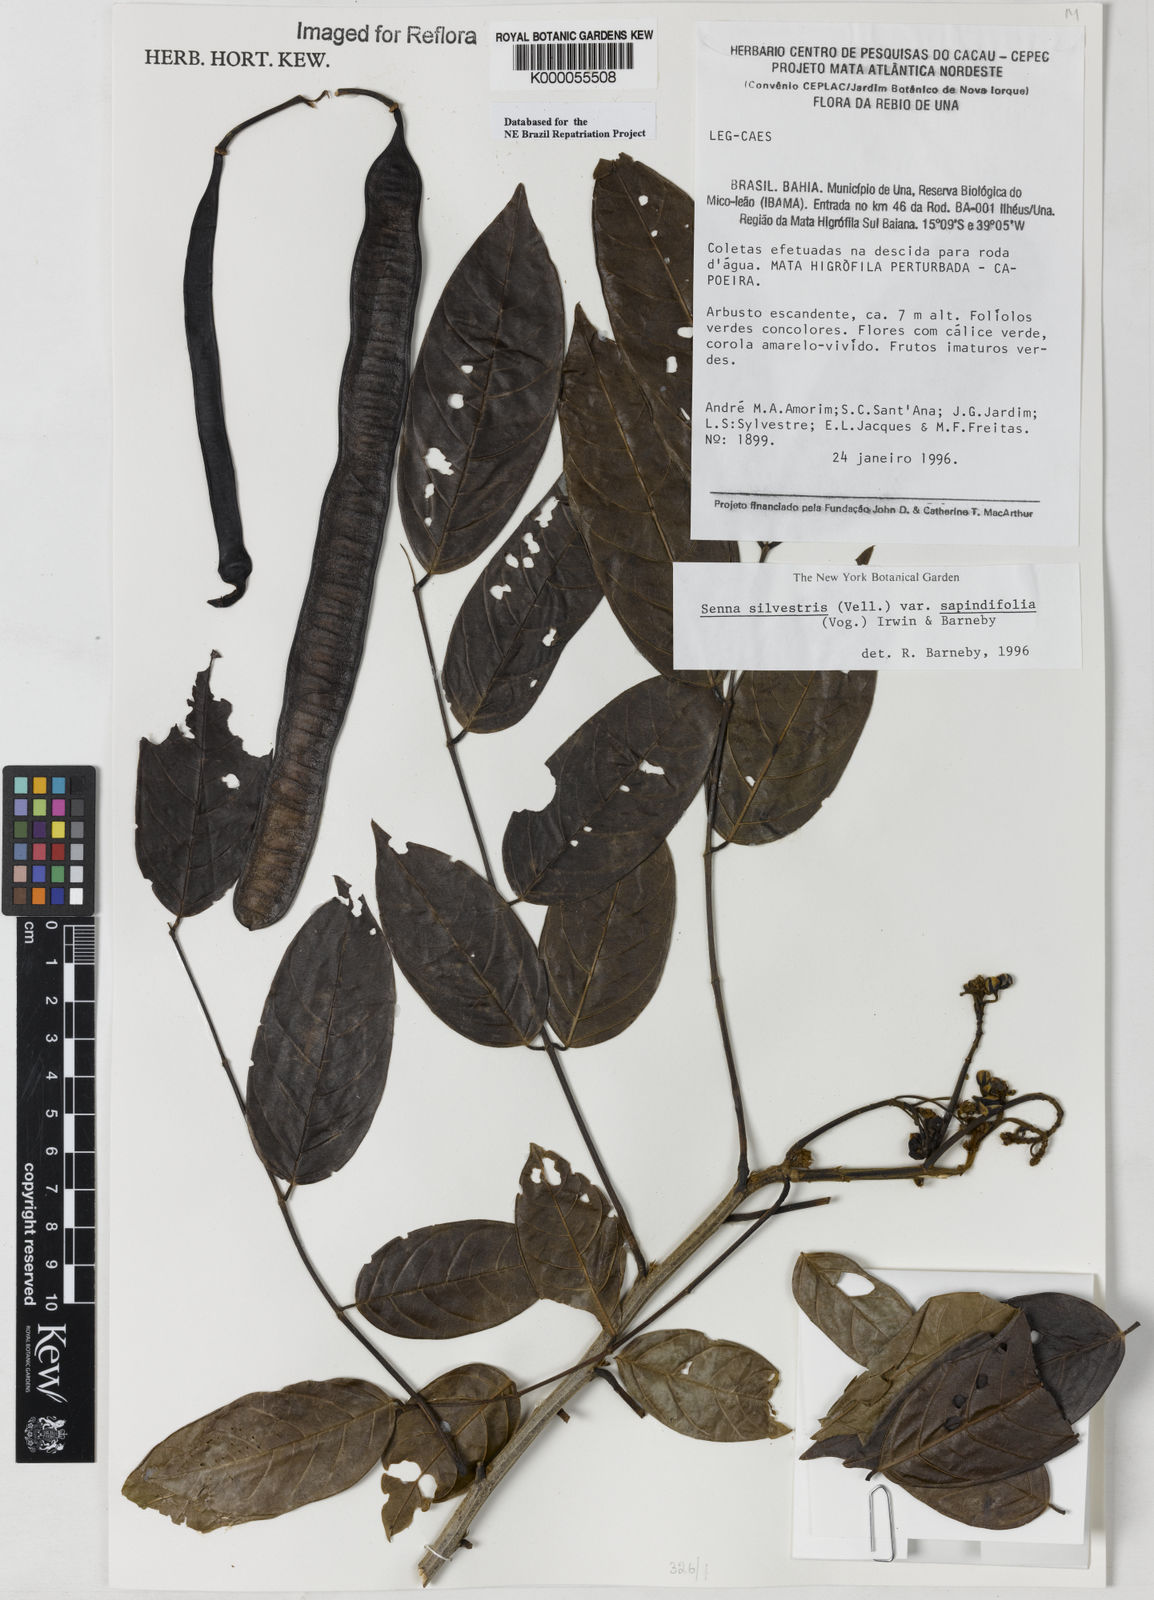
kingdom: Plantae
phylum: Tracheophyta
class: Magnoliopsida
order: Fabales
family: Fabaceae
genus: Senna
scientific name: Senna silvestris
